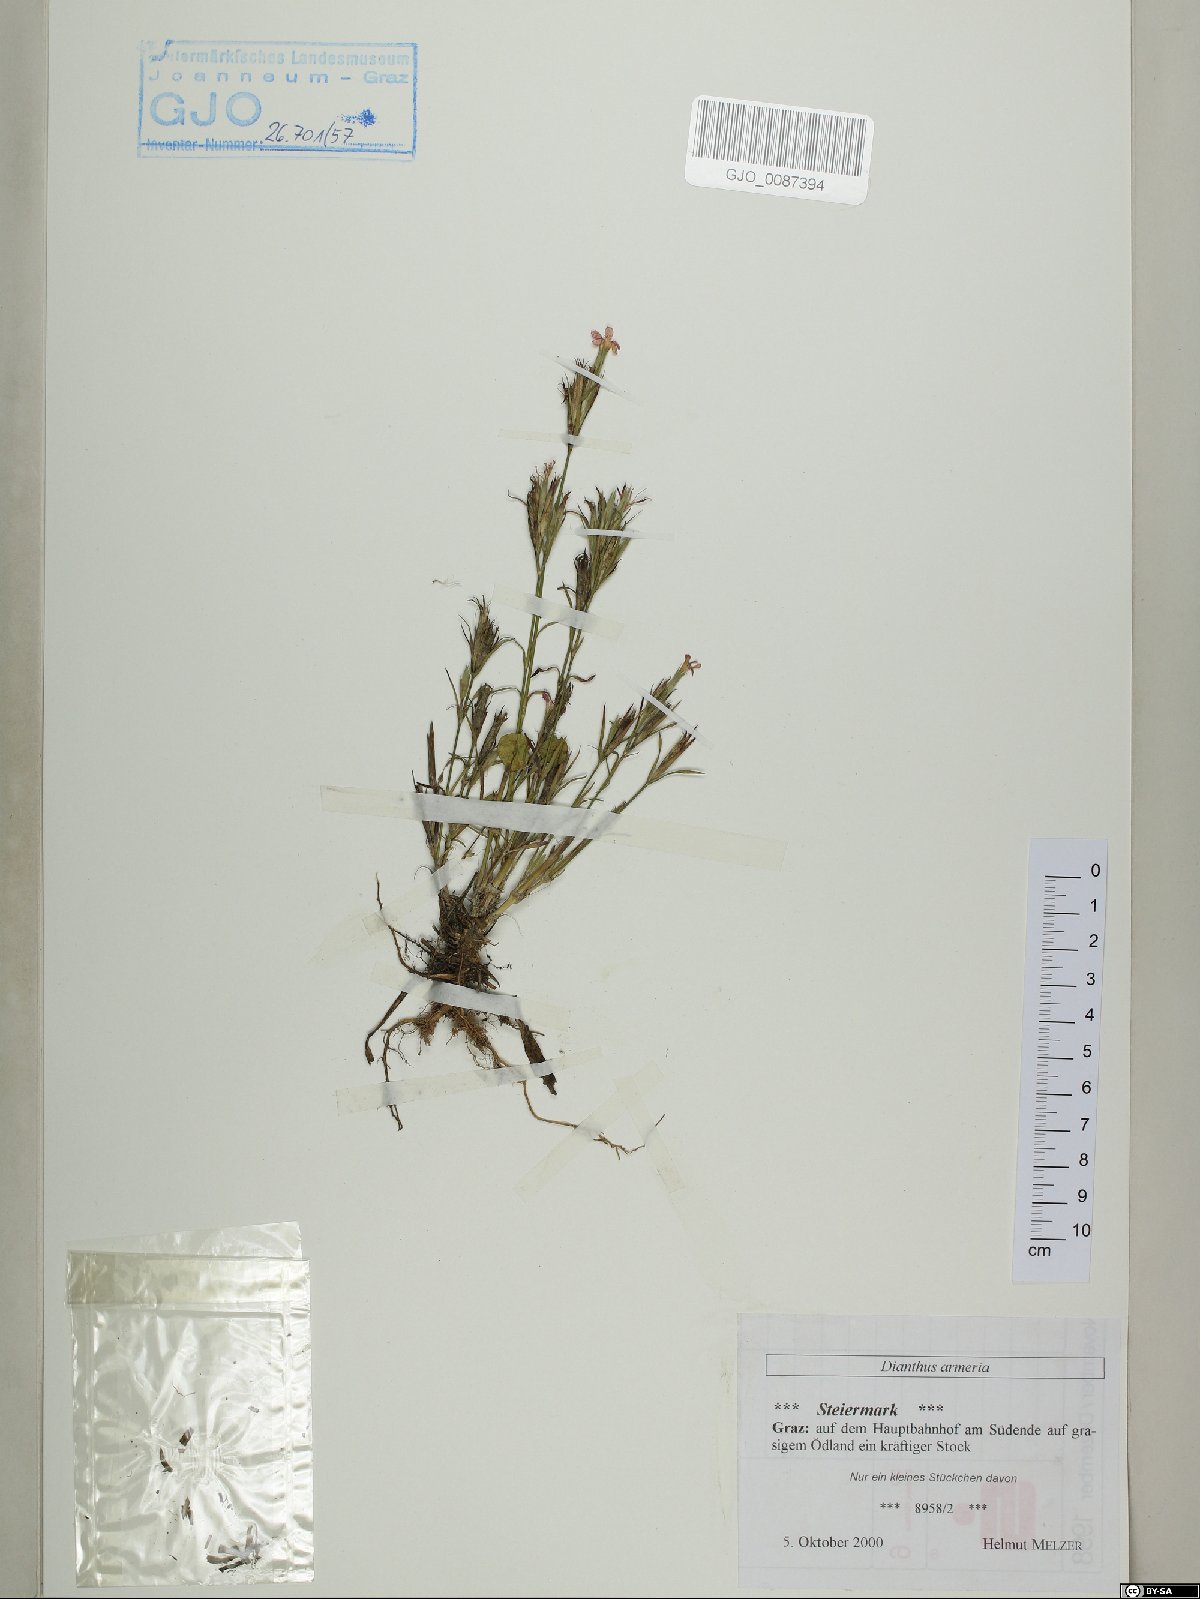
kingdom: Plantae
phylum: Tracheophyta
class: Magnoliopsida
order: Caryophyllales
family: Caryophyllaceae
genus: Dianthus
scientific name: Dianthus armeria
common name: Deptford pink
